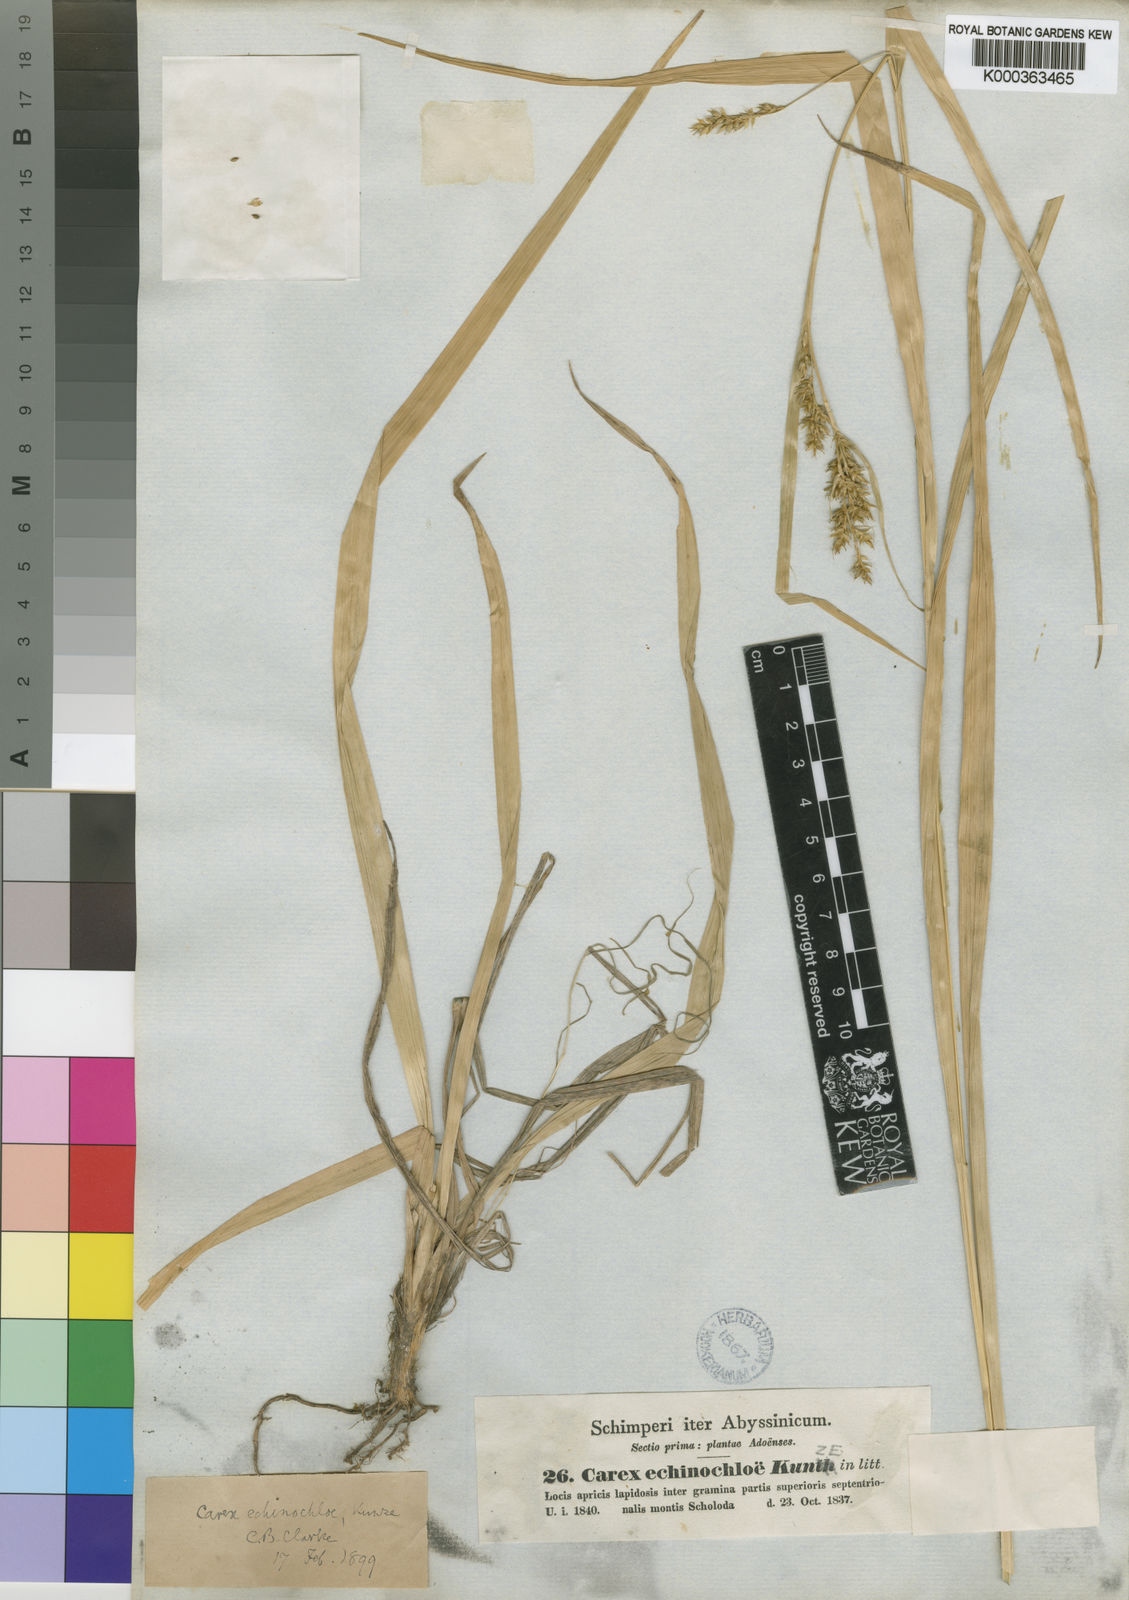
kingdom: Plantae
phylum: Tracheophyta
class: Liliopsida
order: Poales
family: Cyperaceae
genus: Carex
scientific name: Carex echinochloe
